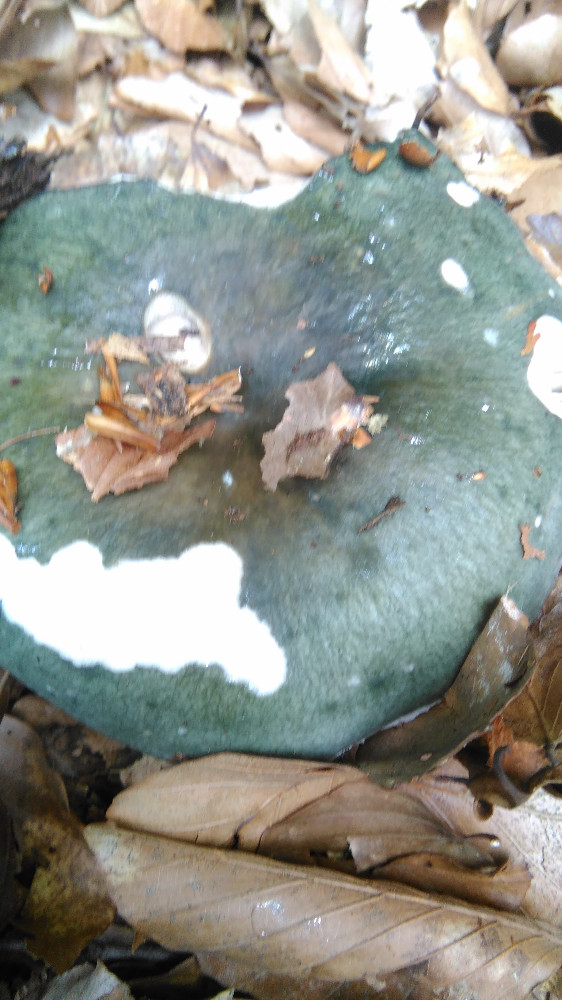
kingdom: Fungi
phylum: Basidiomycota
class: Agaricomycetes
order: Russulales
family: Russulaceae
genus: Russula
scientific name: Russula cyanoxantha
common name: broget skørhat
